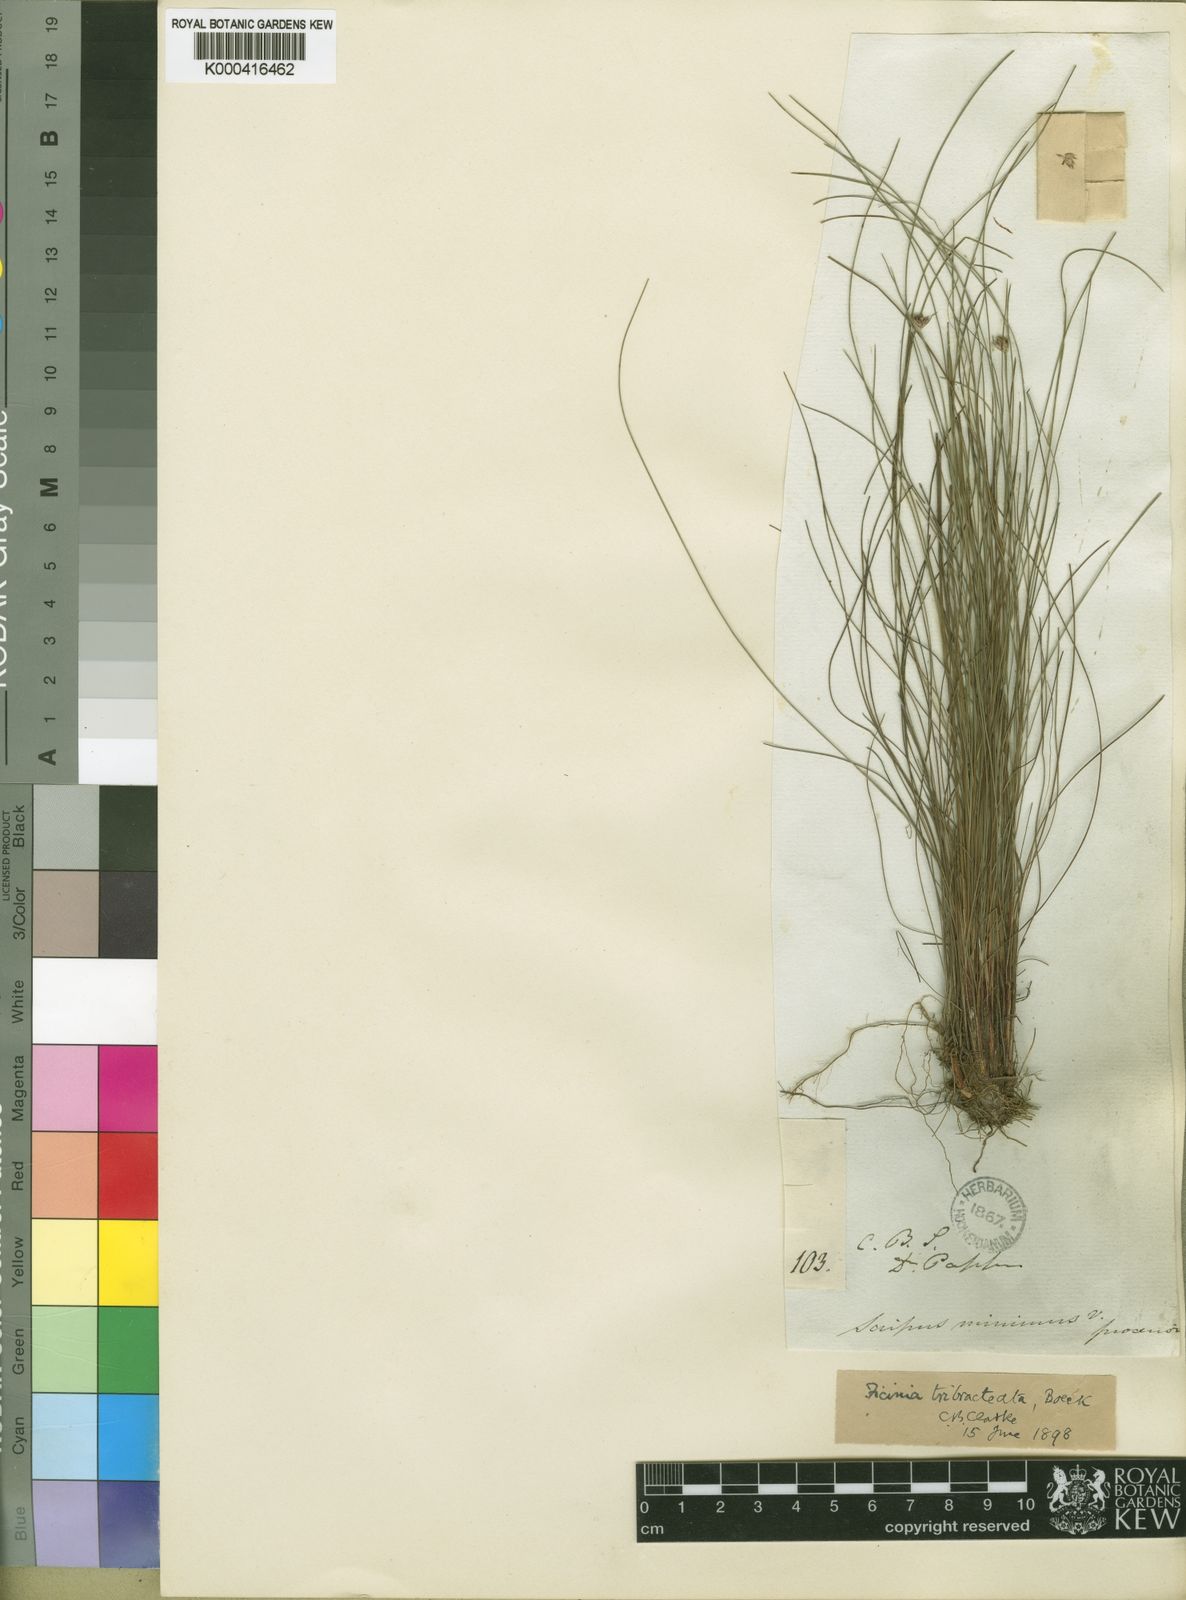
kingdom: Plantae
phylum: Tracheophyta
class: Liliopsida
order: Poales
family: Cyperaceae
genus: Ficinia
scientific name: Ficinia tristachya
